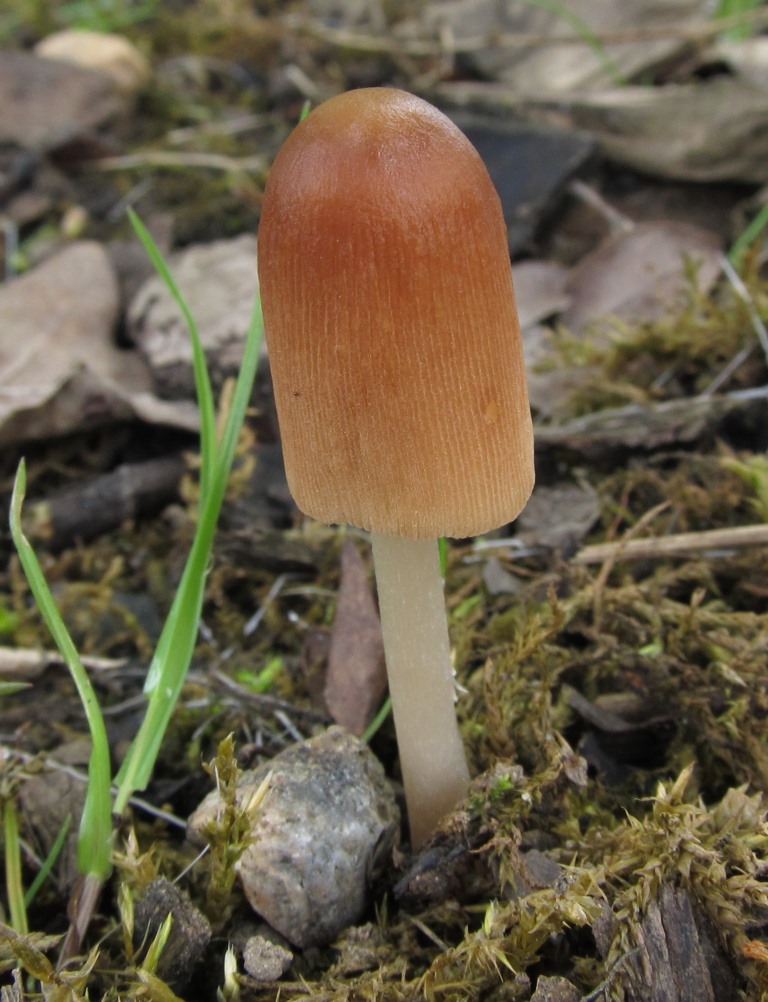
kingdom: Fungi
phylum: Basidiomycota
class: Agaricomycetes
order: Agaricales
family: Psathyrellaceae
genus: Parasola
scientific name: Parasola auricoma
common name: hansens hjulhat
